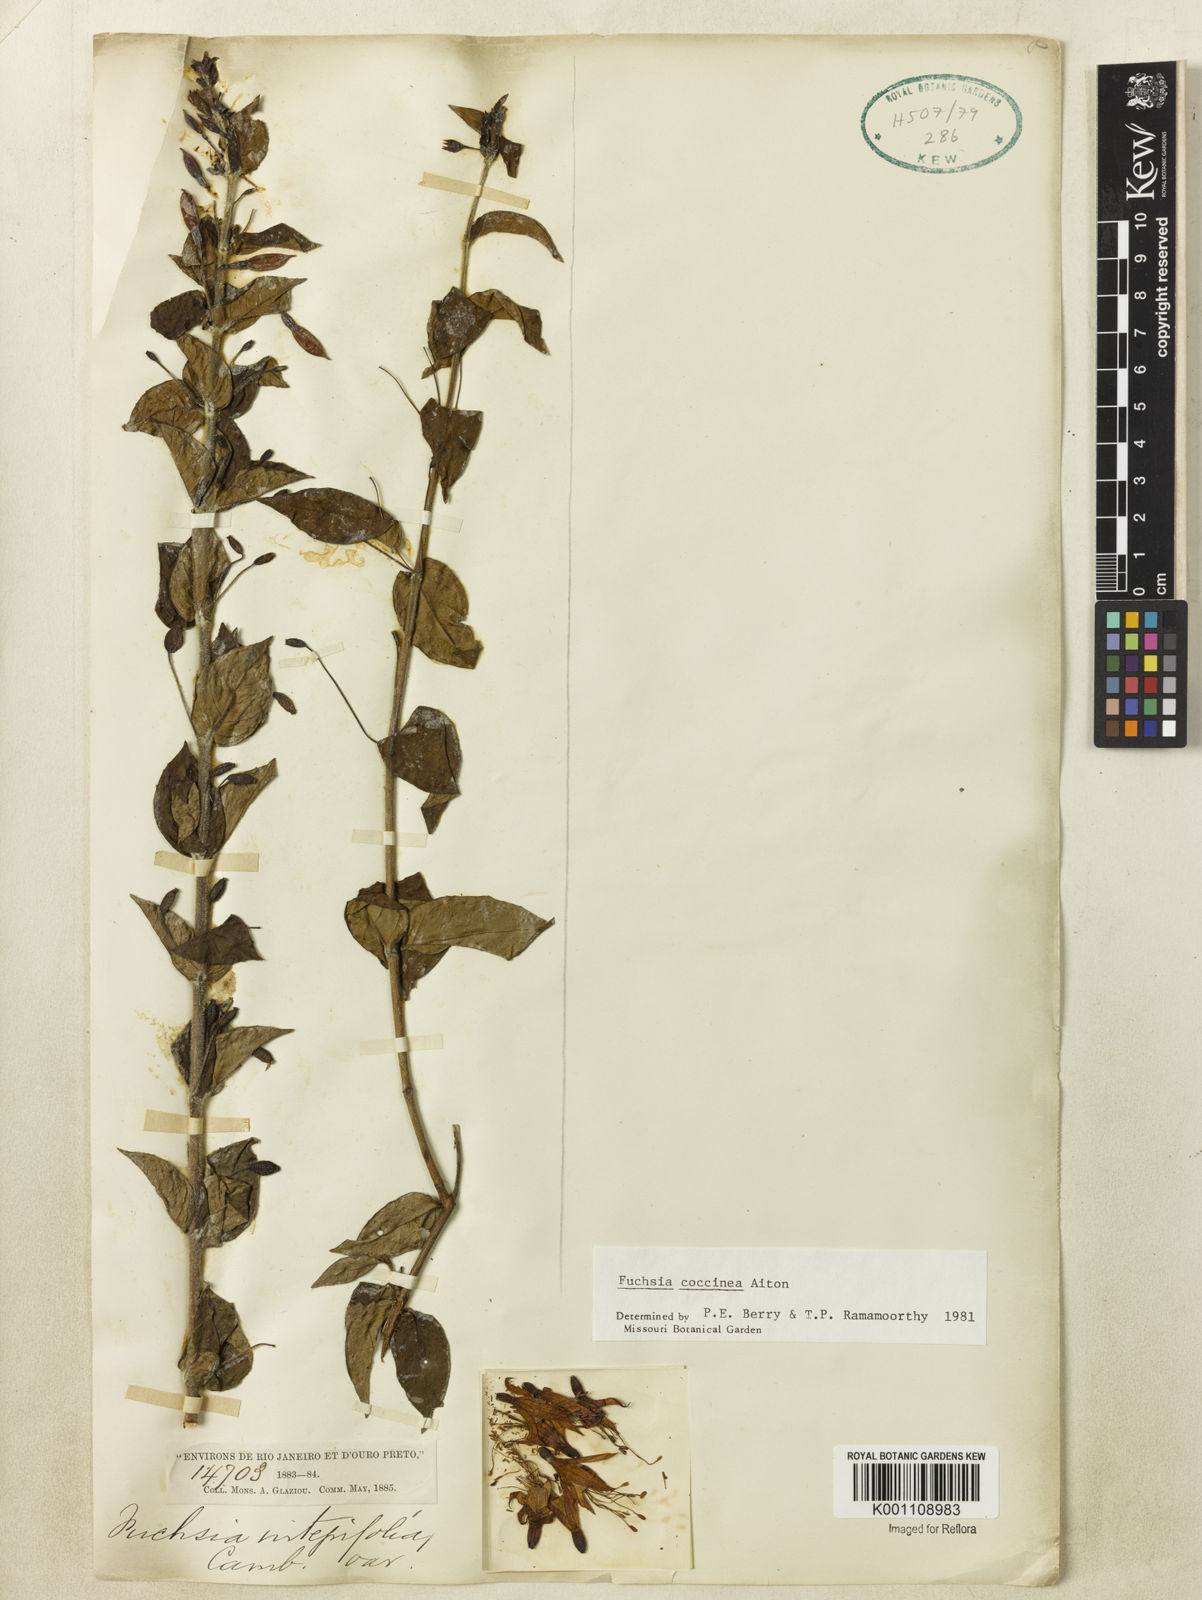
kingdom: Plantae
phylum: Tracheophyta
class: Magnoliopsida
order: Myrtales
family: Onagraceae
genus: Fuchsia
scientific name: Fuchsia
